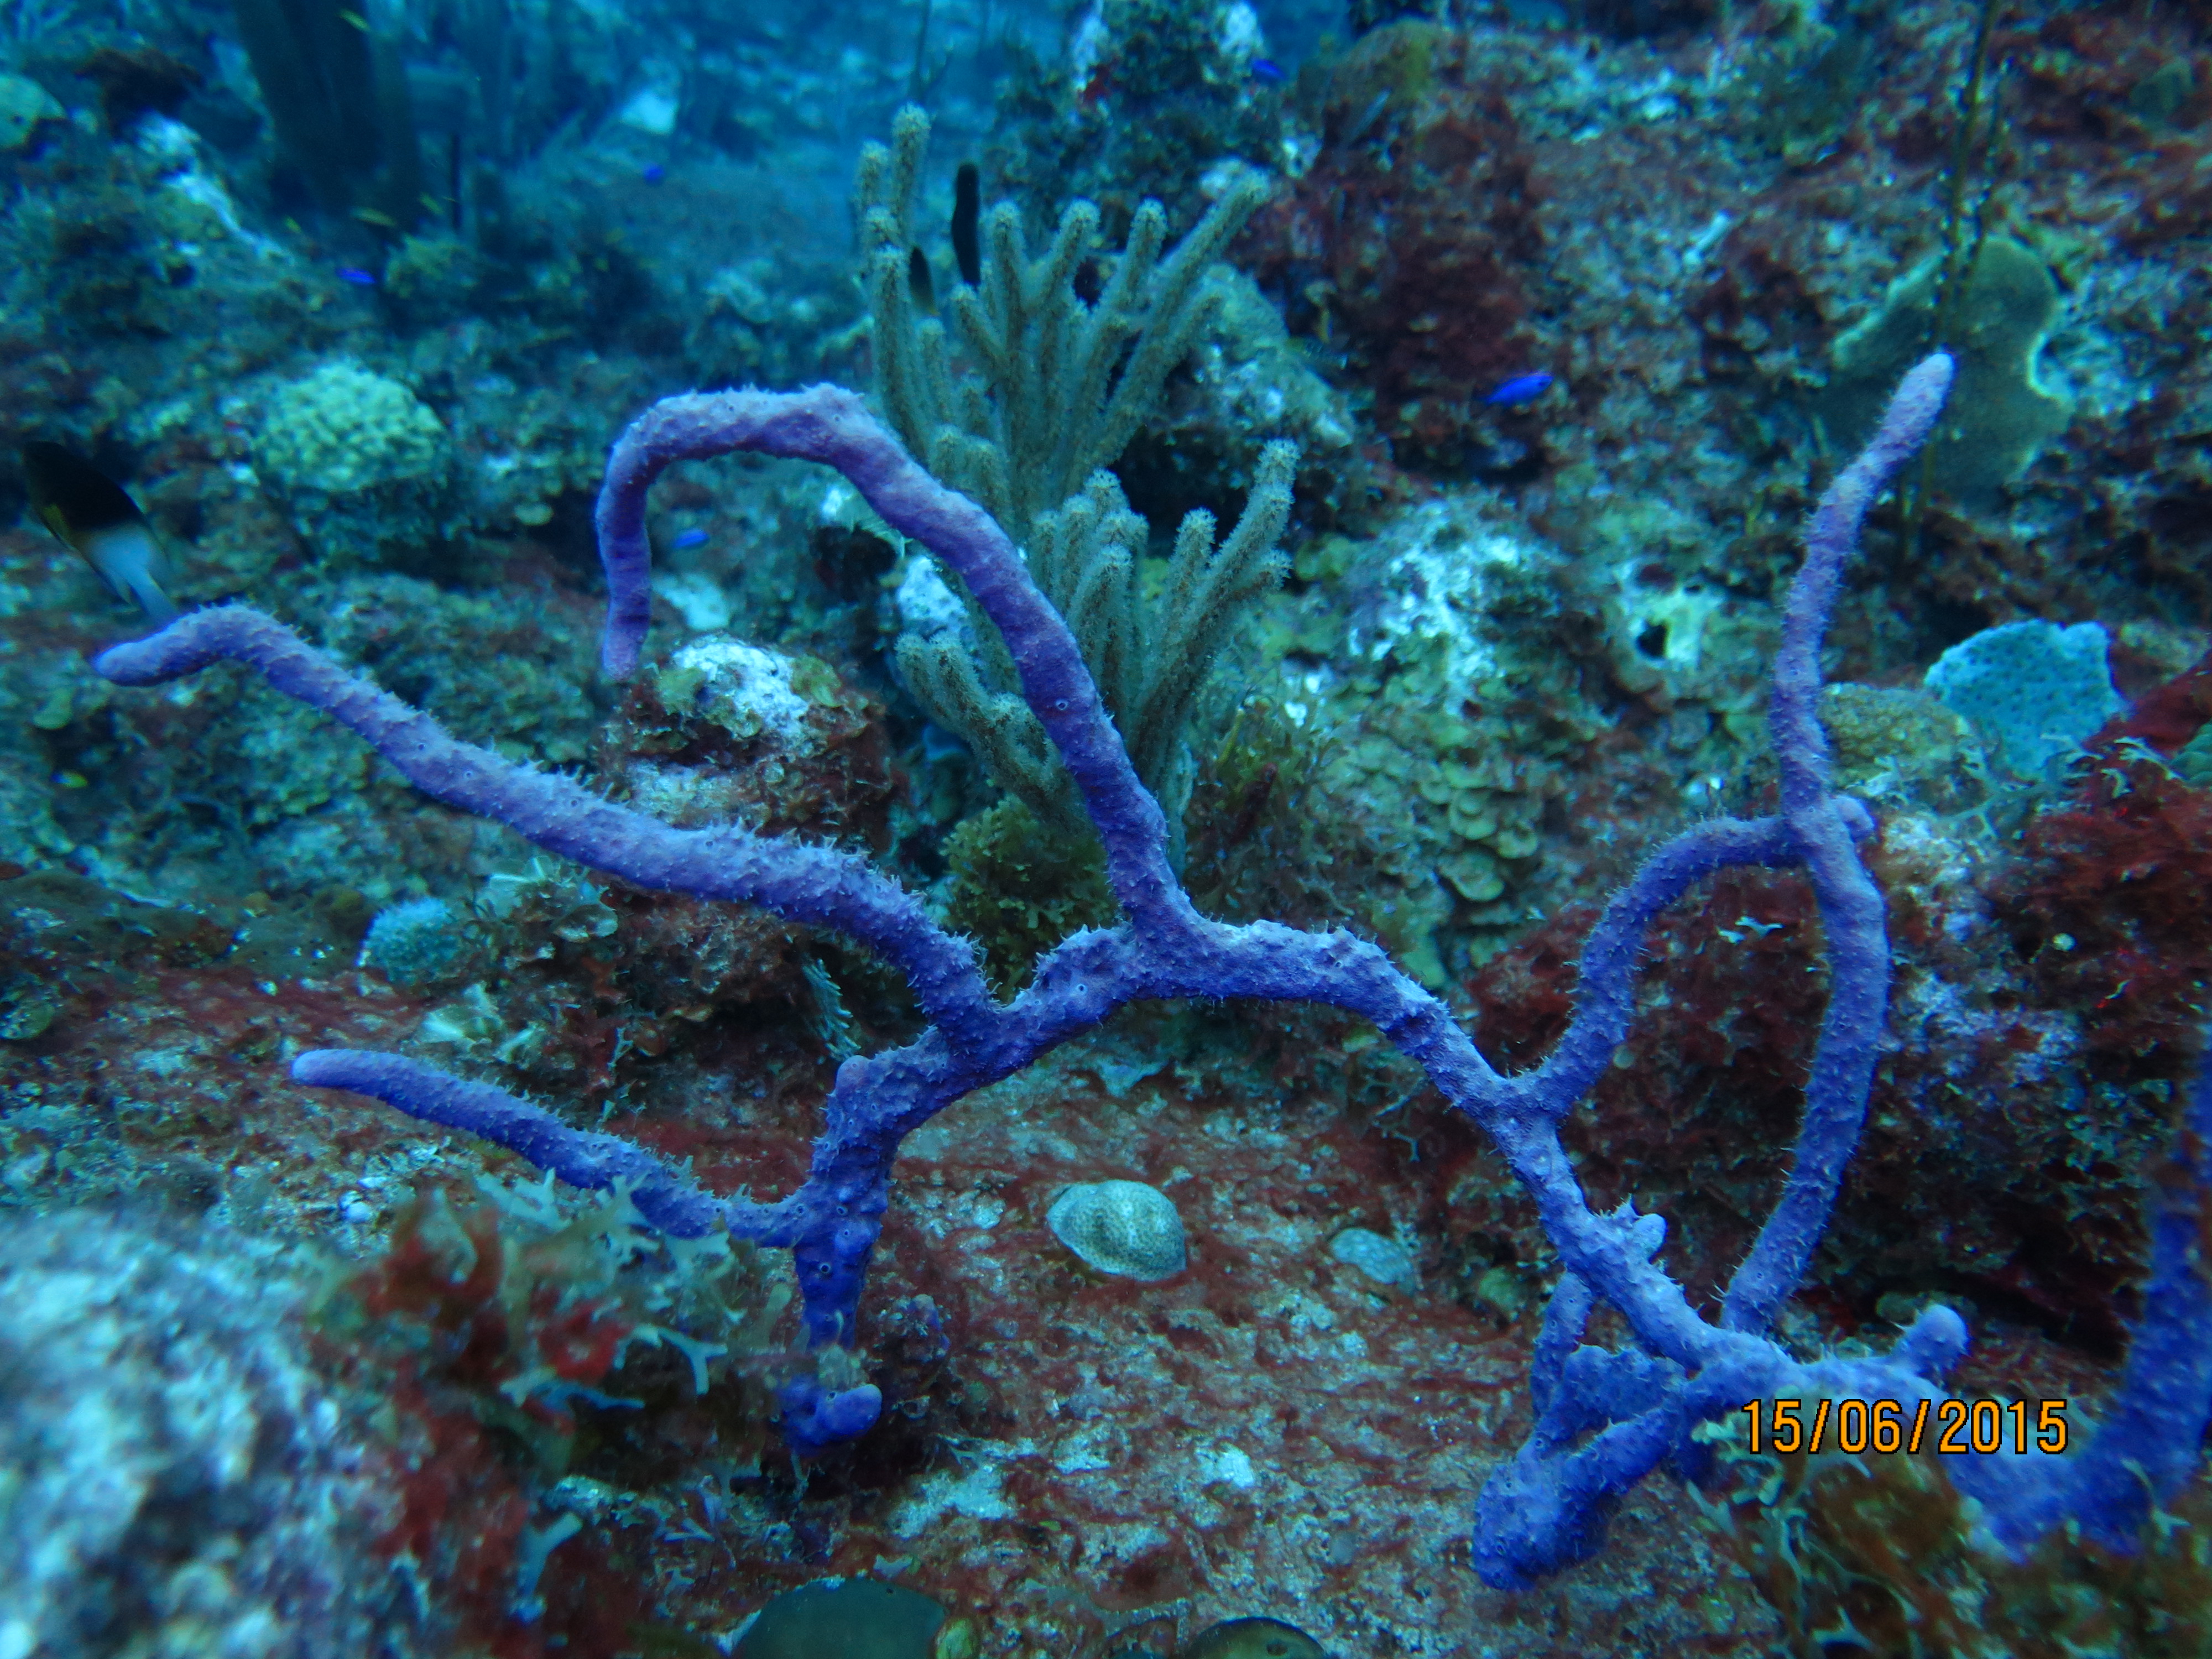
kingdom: Animalia
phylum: Porifera
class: Demospongiae
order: Verongiida
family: Aplysinidae
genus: Aplysina
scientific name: Aplysina cauliformis
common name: Branching candle sponge
